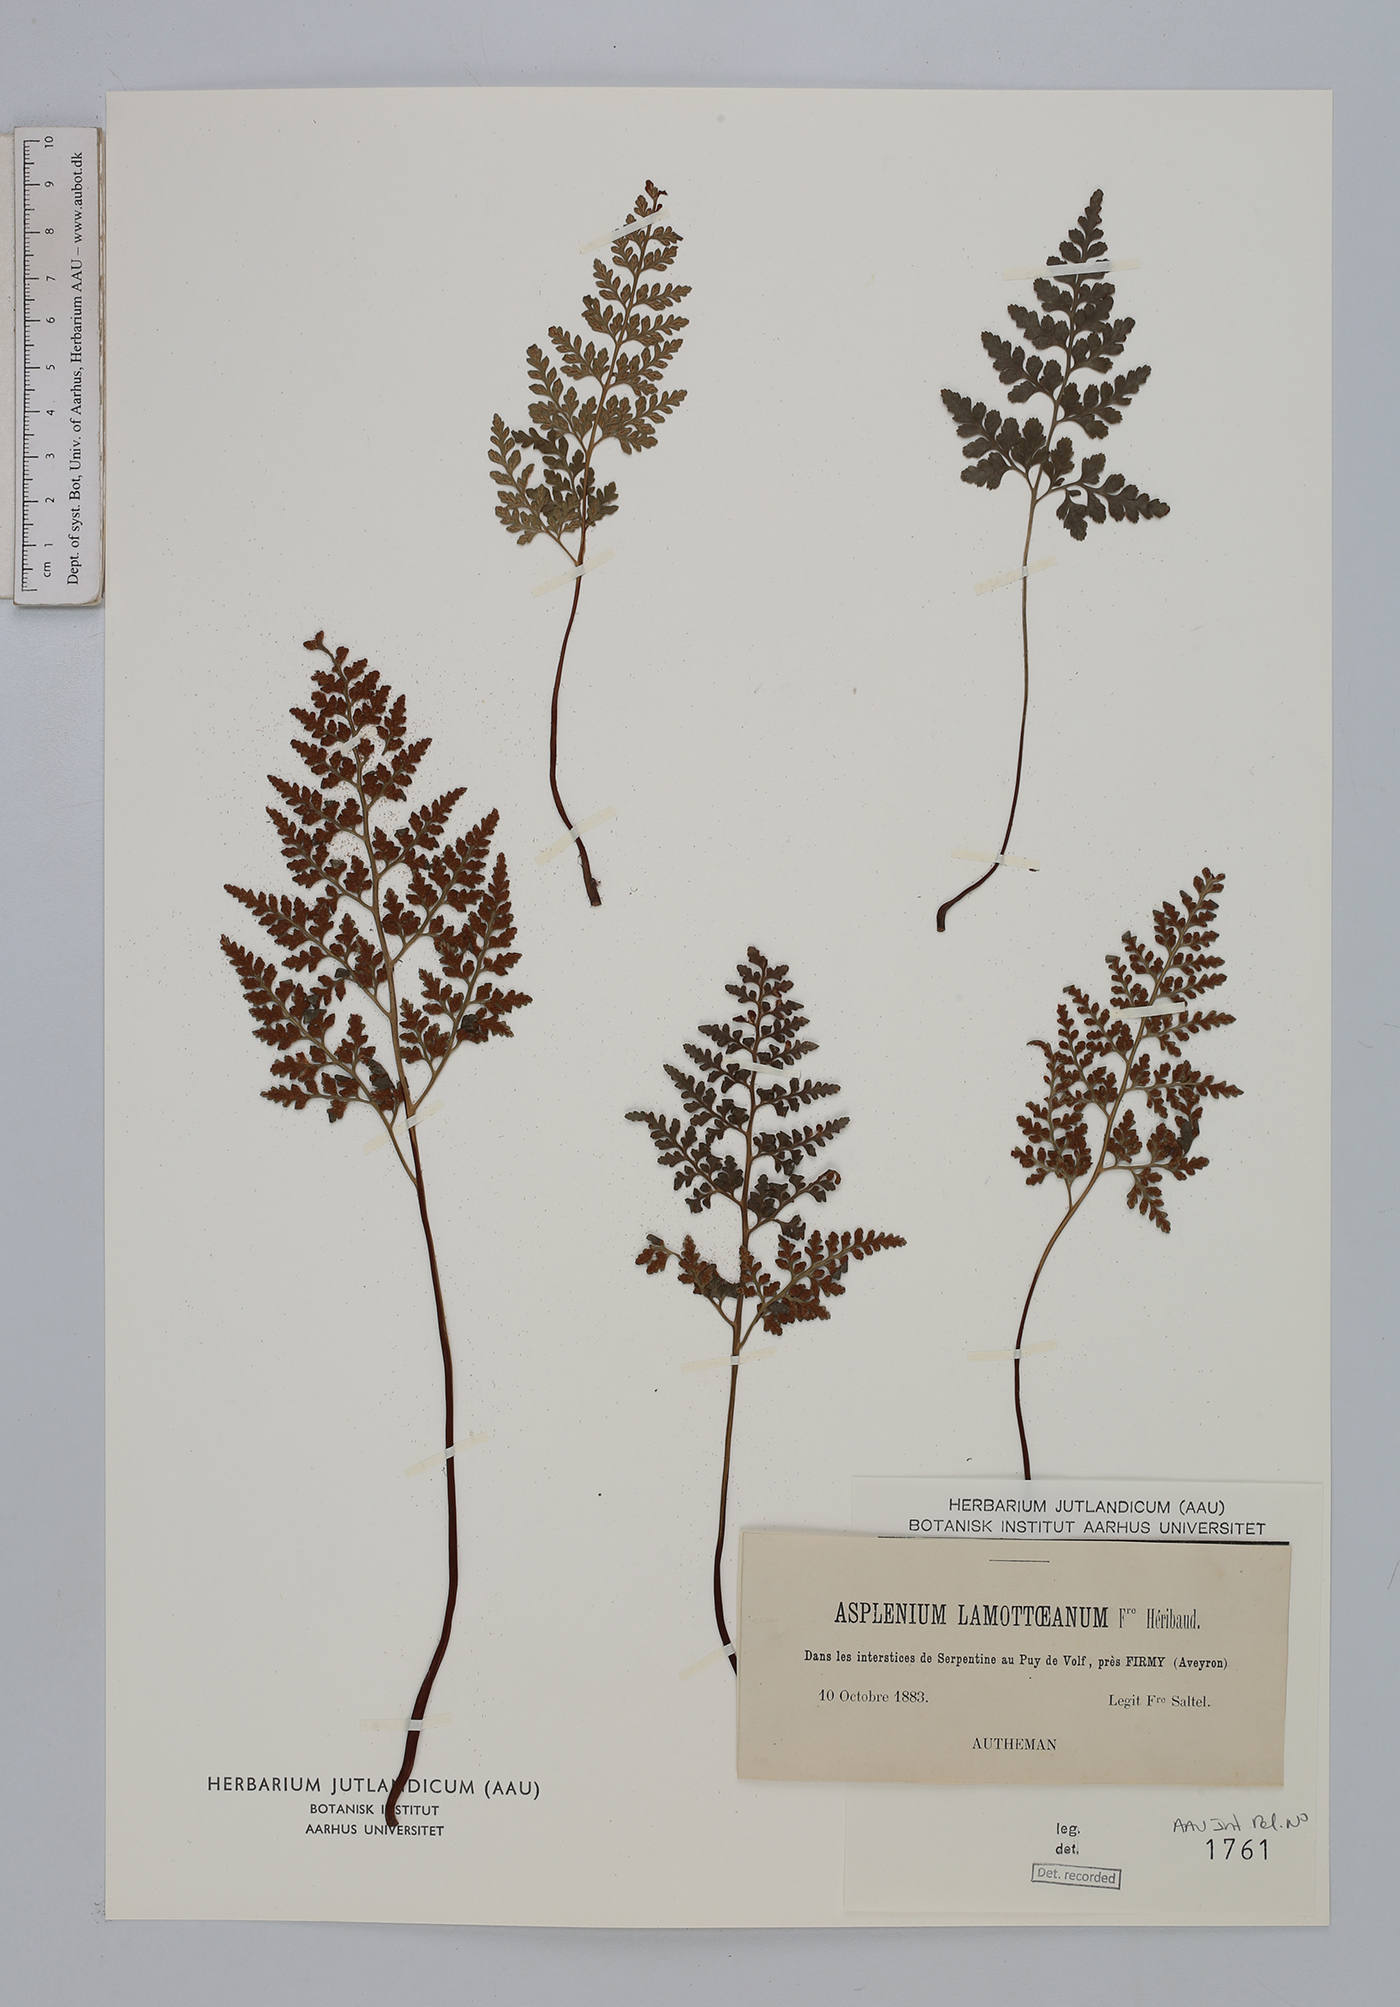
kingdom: Plantae
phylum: Tracheophyta
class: Polypodiopsida
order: Polypodiales
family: Aspleniaceae
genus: Asplenium
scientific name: Asplenium cuneifolium
